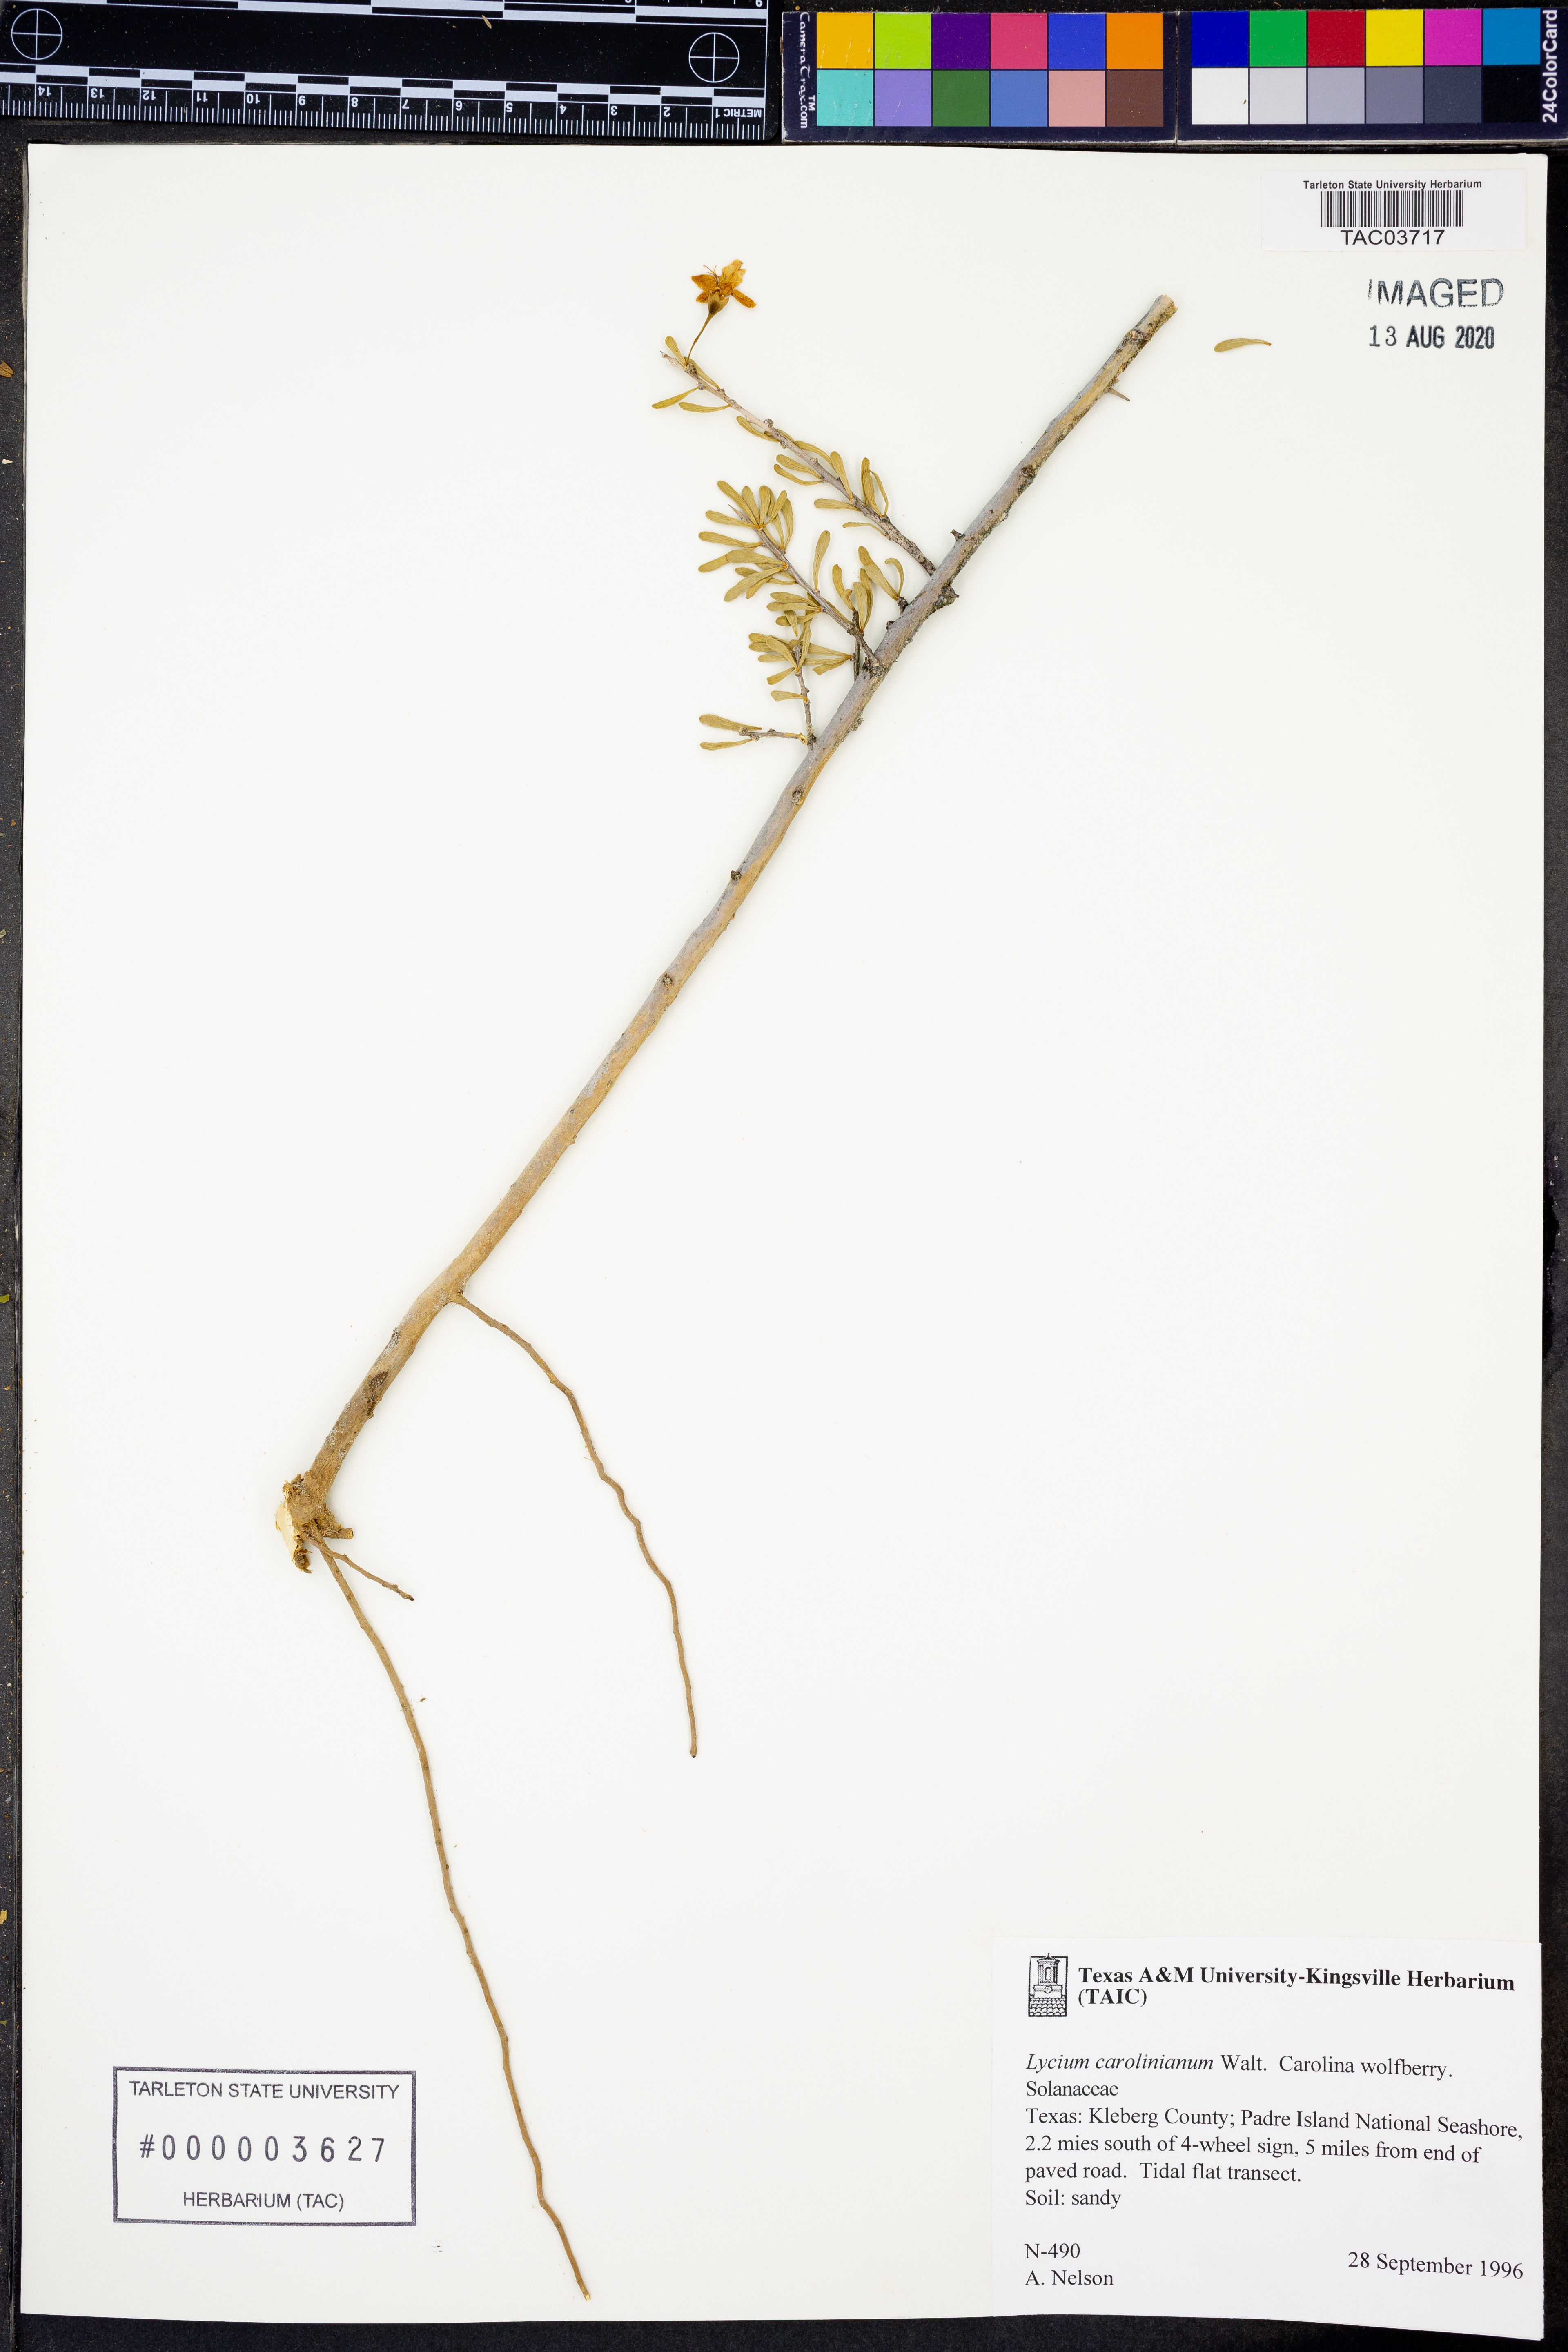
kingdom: Plantae
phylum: Tracheophyta
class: Magnoliopsida
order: Solanales
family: Solanaceae
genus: Lycium
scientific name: Lycium carolinianum
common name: Christmasberry
